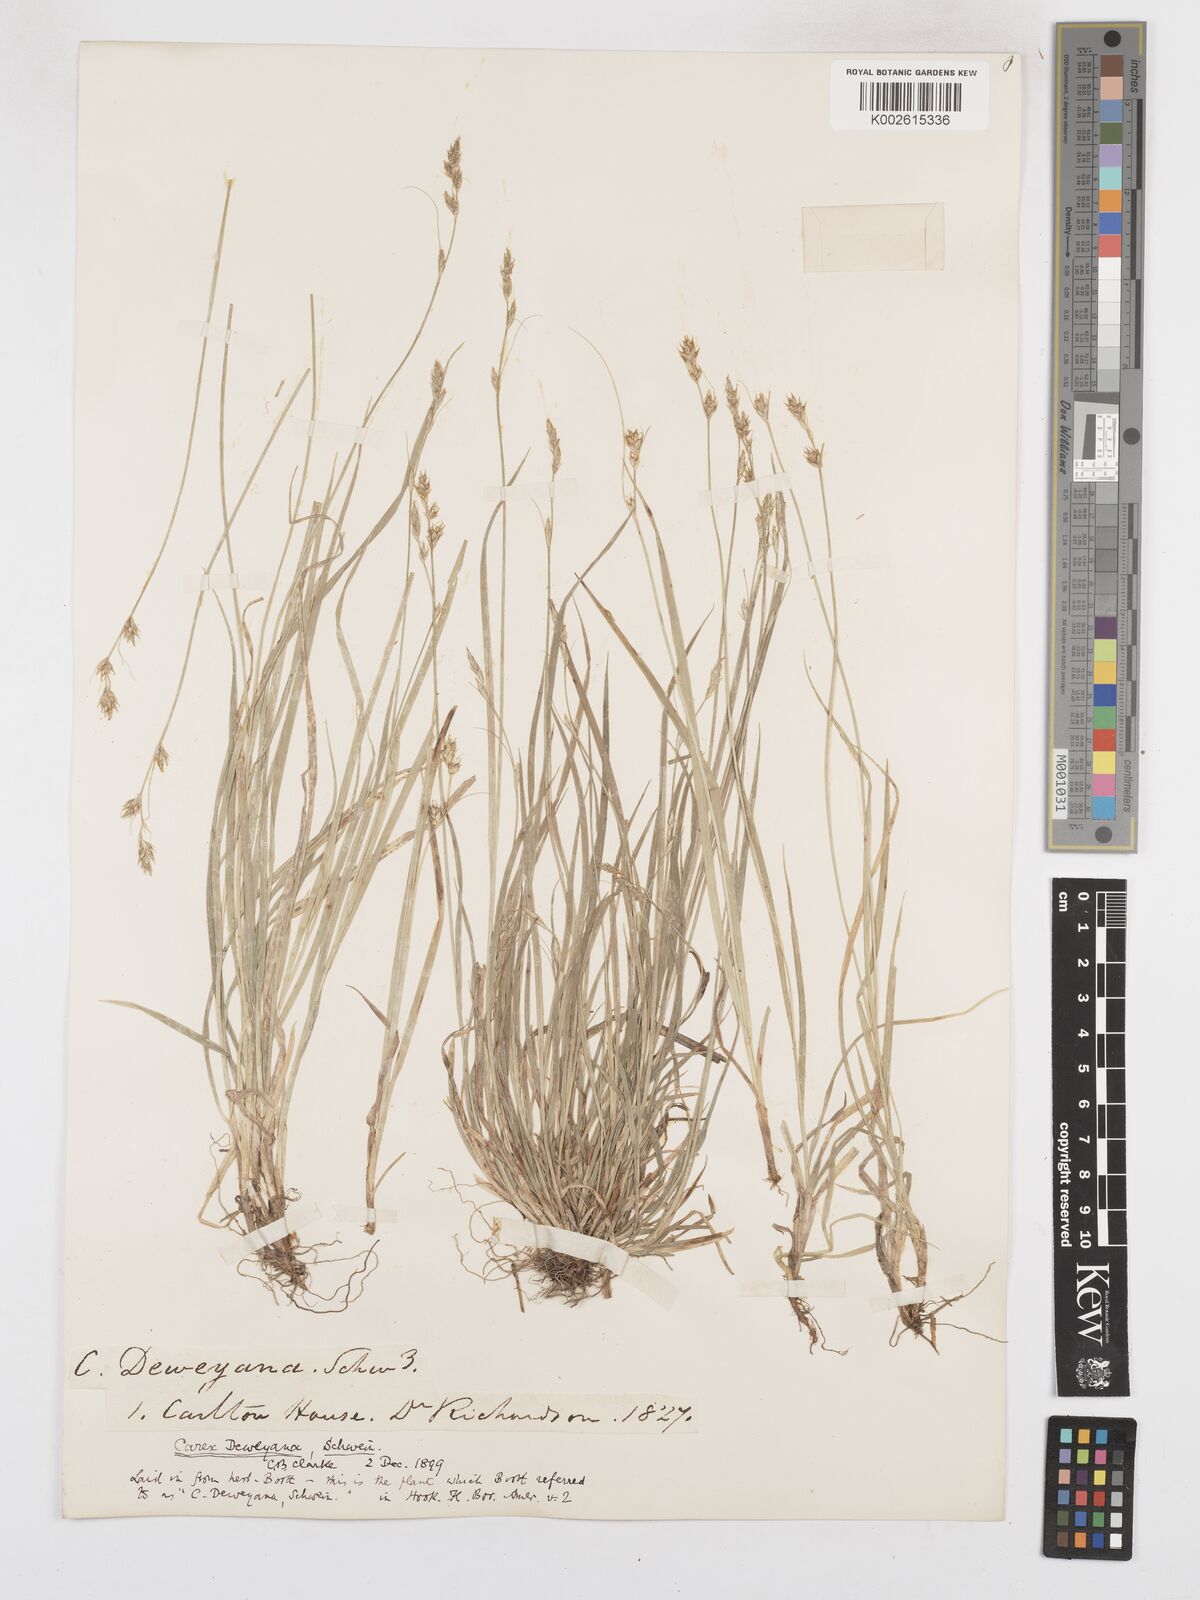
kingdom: Plantae
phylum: Tracheophyta
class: Liliopsida
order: Poales
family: Cyperaceae
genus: Carex
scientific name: Carex deweyana
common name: Dewey's sedge
